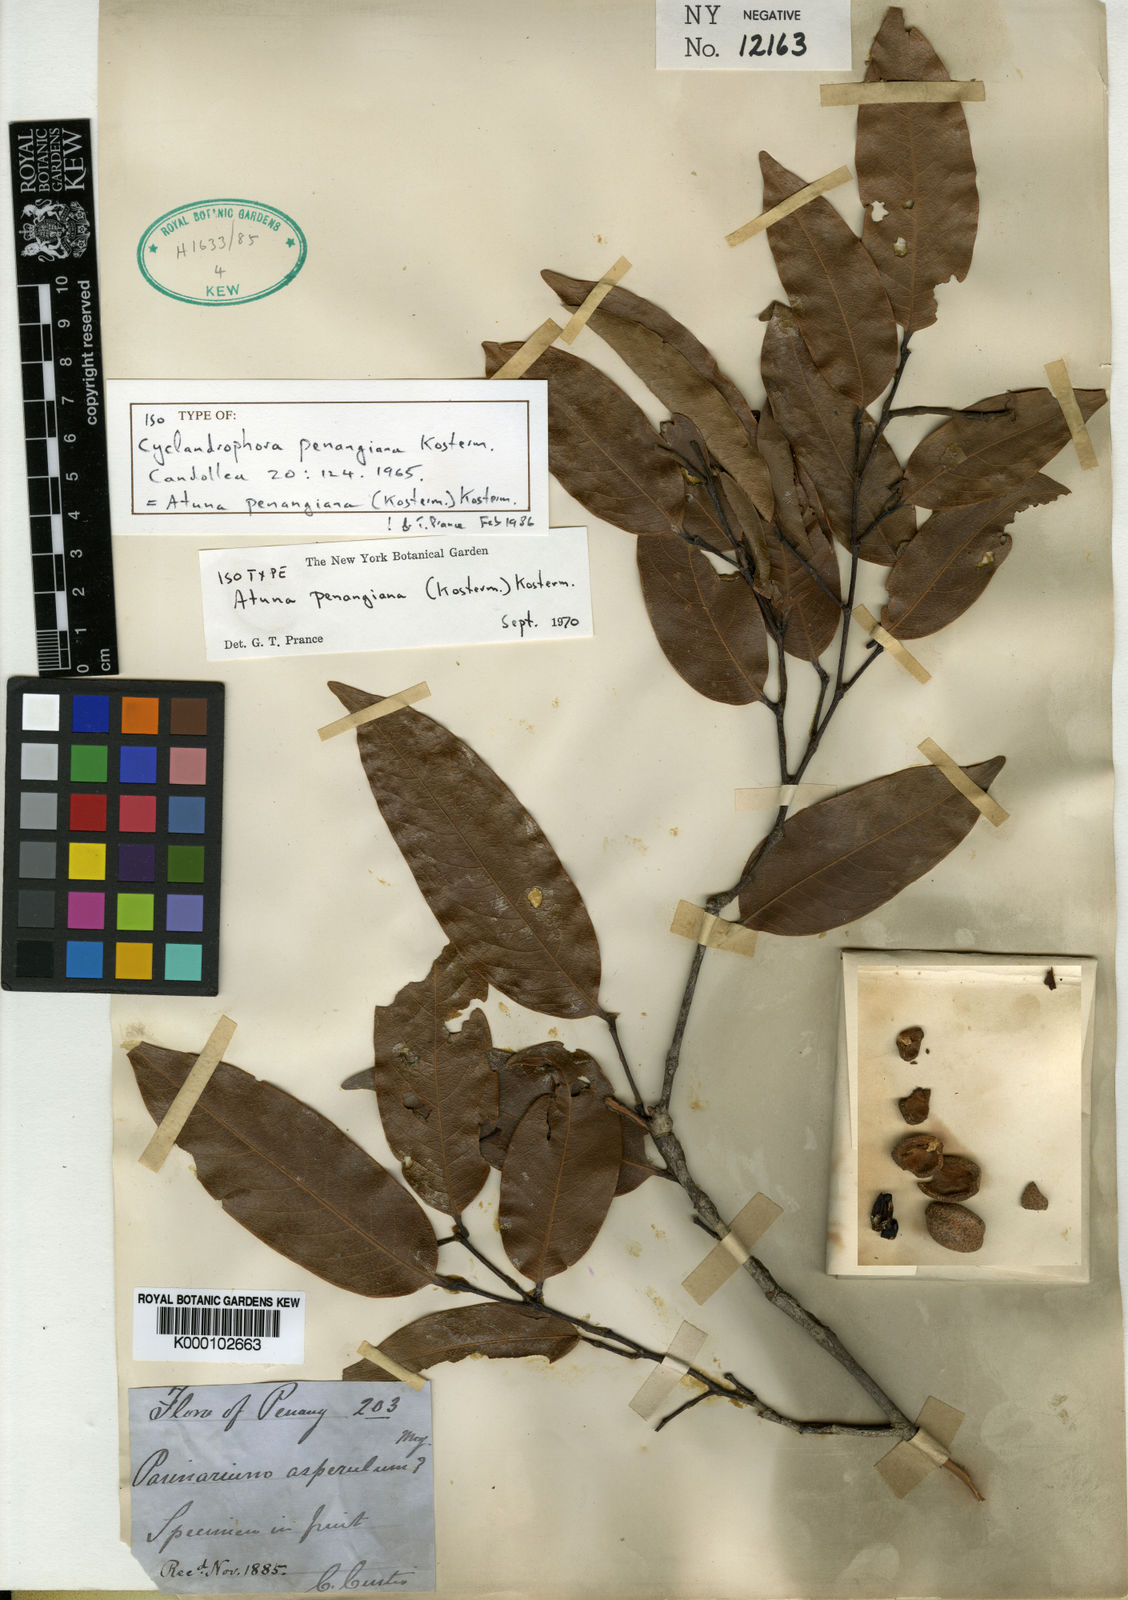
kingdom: Plantae
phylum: Tracheophyta
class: Magnoliopsida
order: Malpighiales
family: Chrysobalanaceae
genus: Atuna
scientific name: Atuna penangiana
